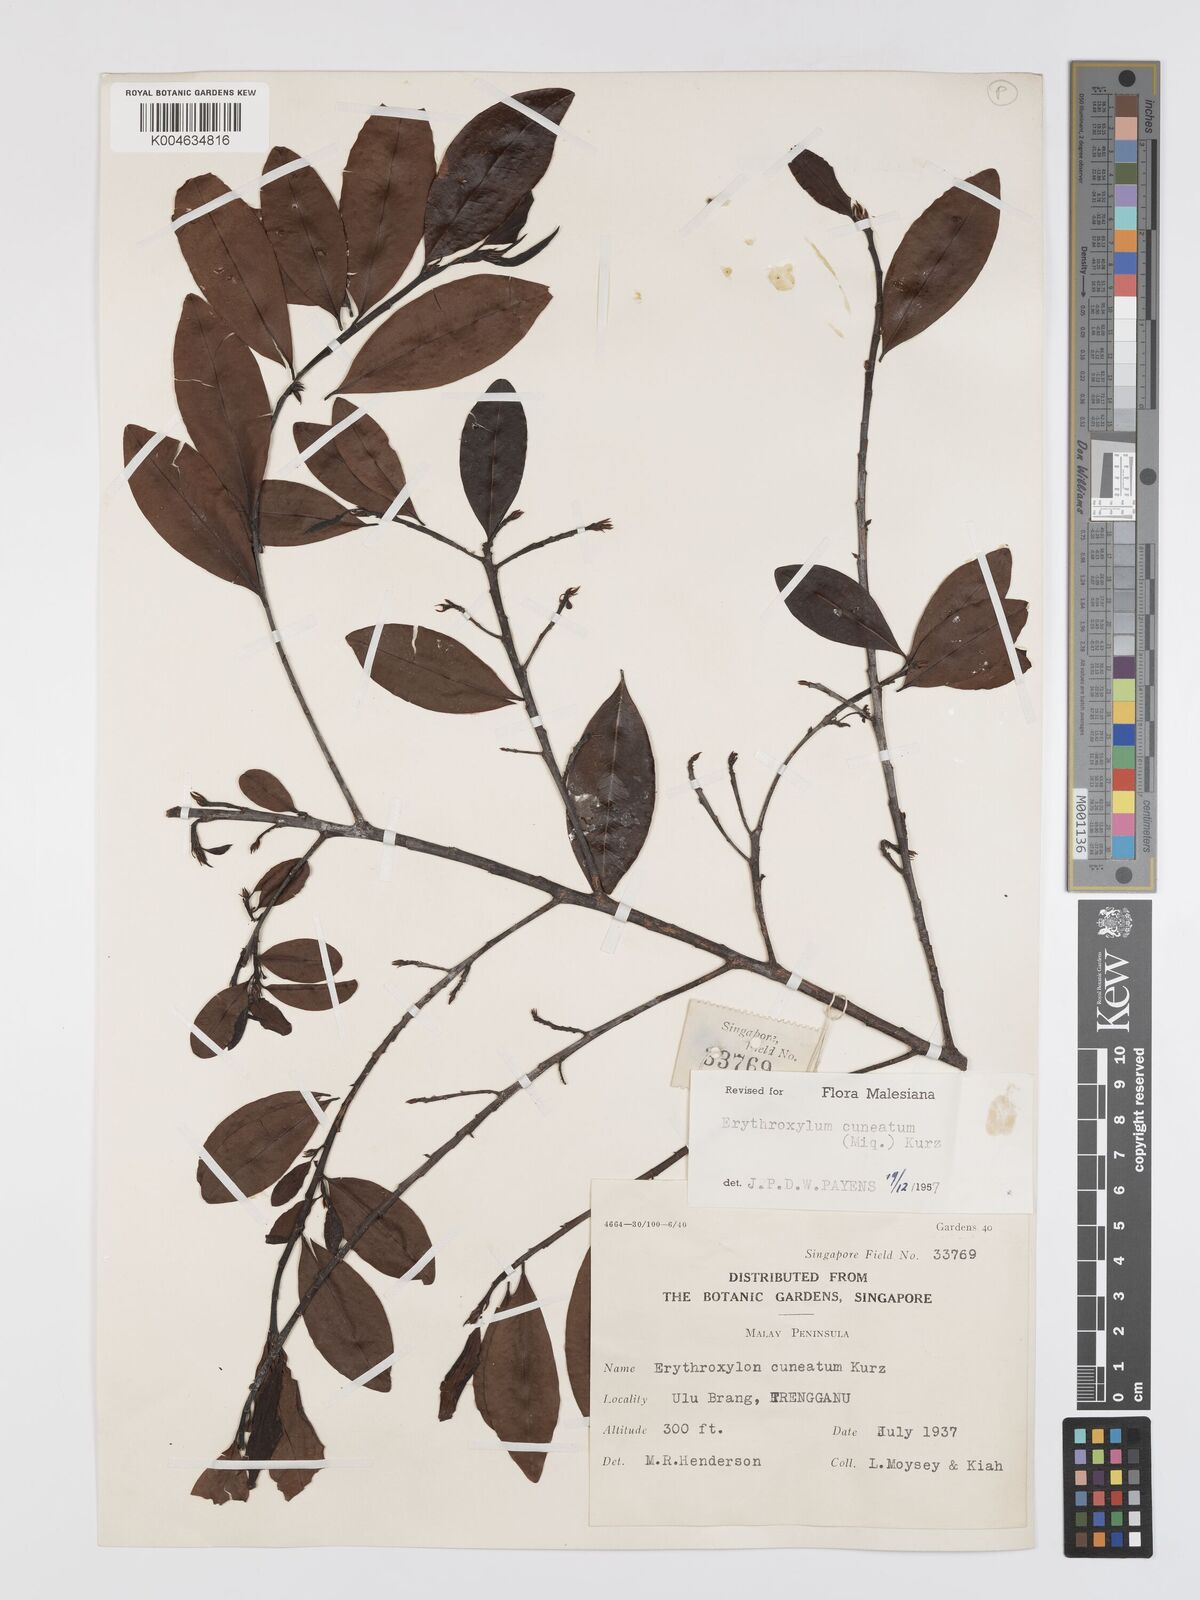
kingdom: Plantae
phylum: Tracheophyta
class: Magnoliopsida
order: Malpighiales
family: Erythroxylaceae
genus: Erythroxylum
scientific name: Erythroxylum cuneatum
